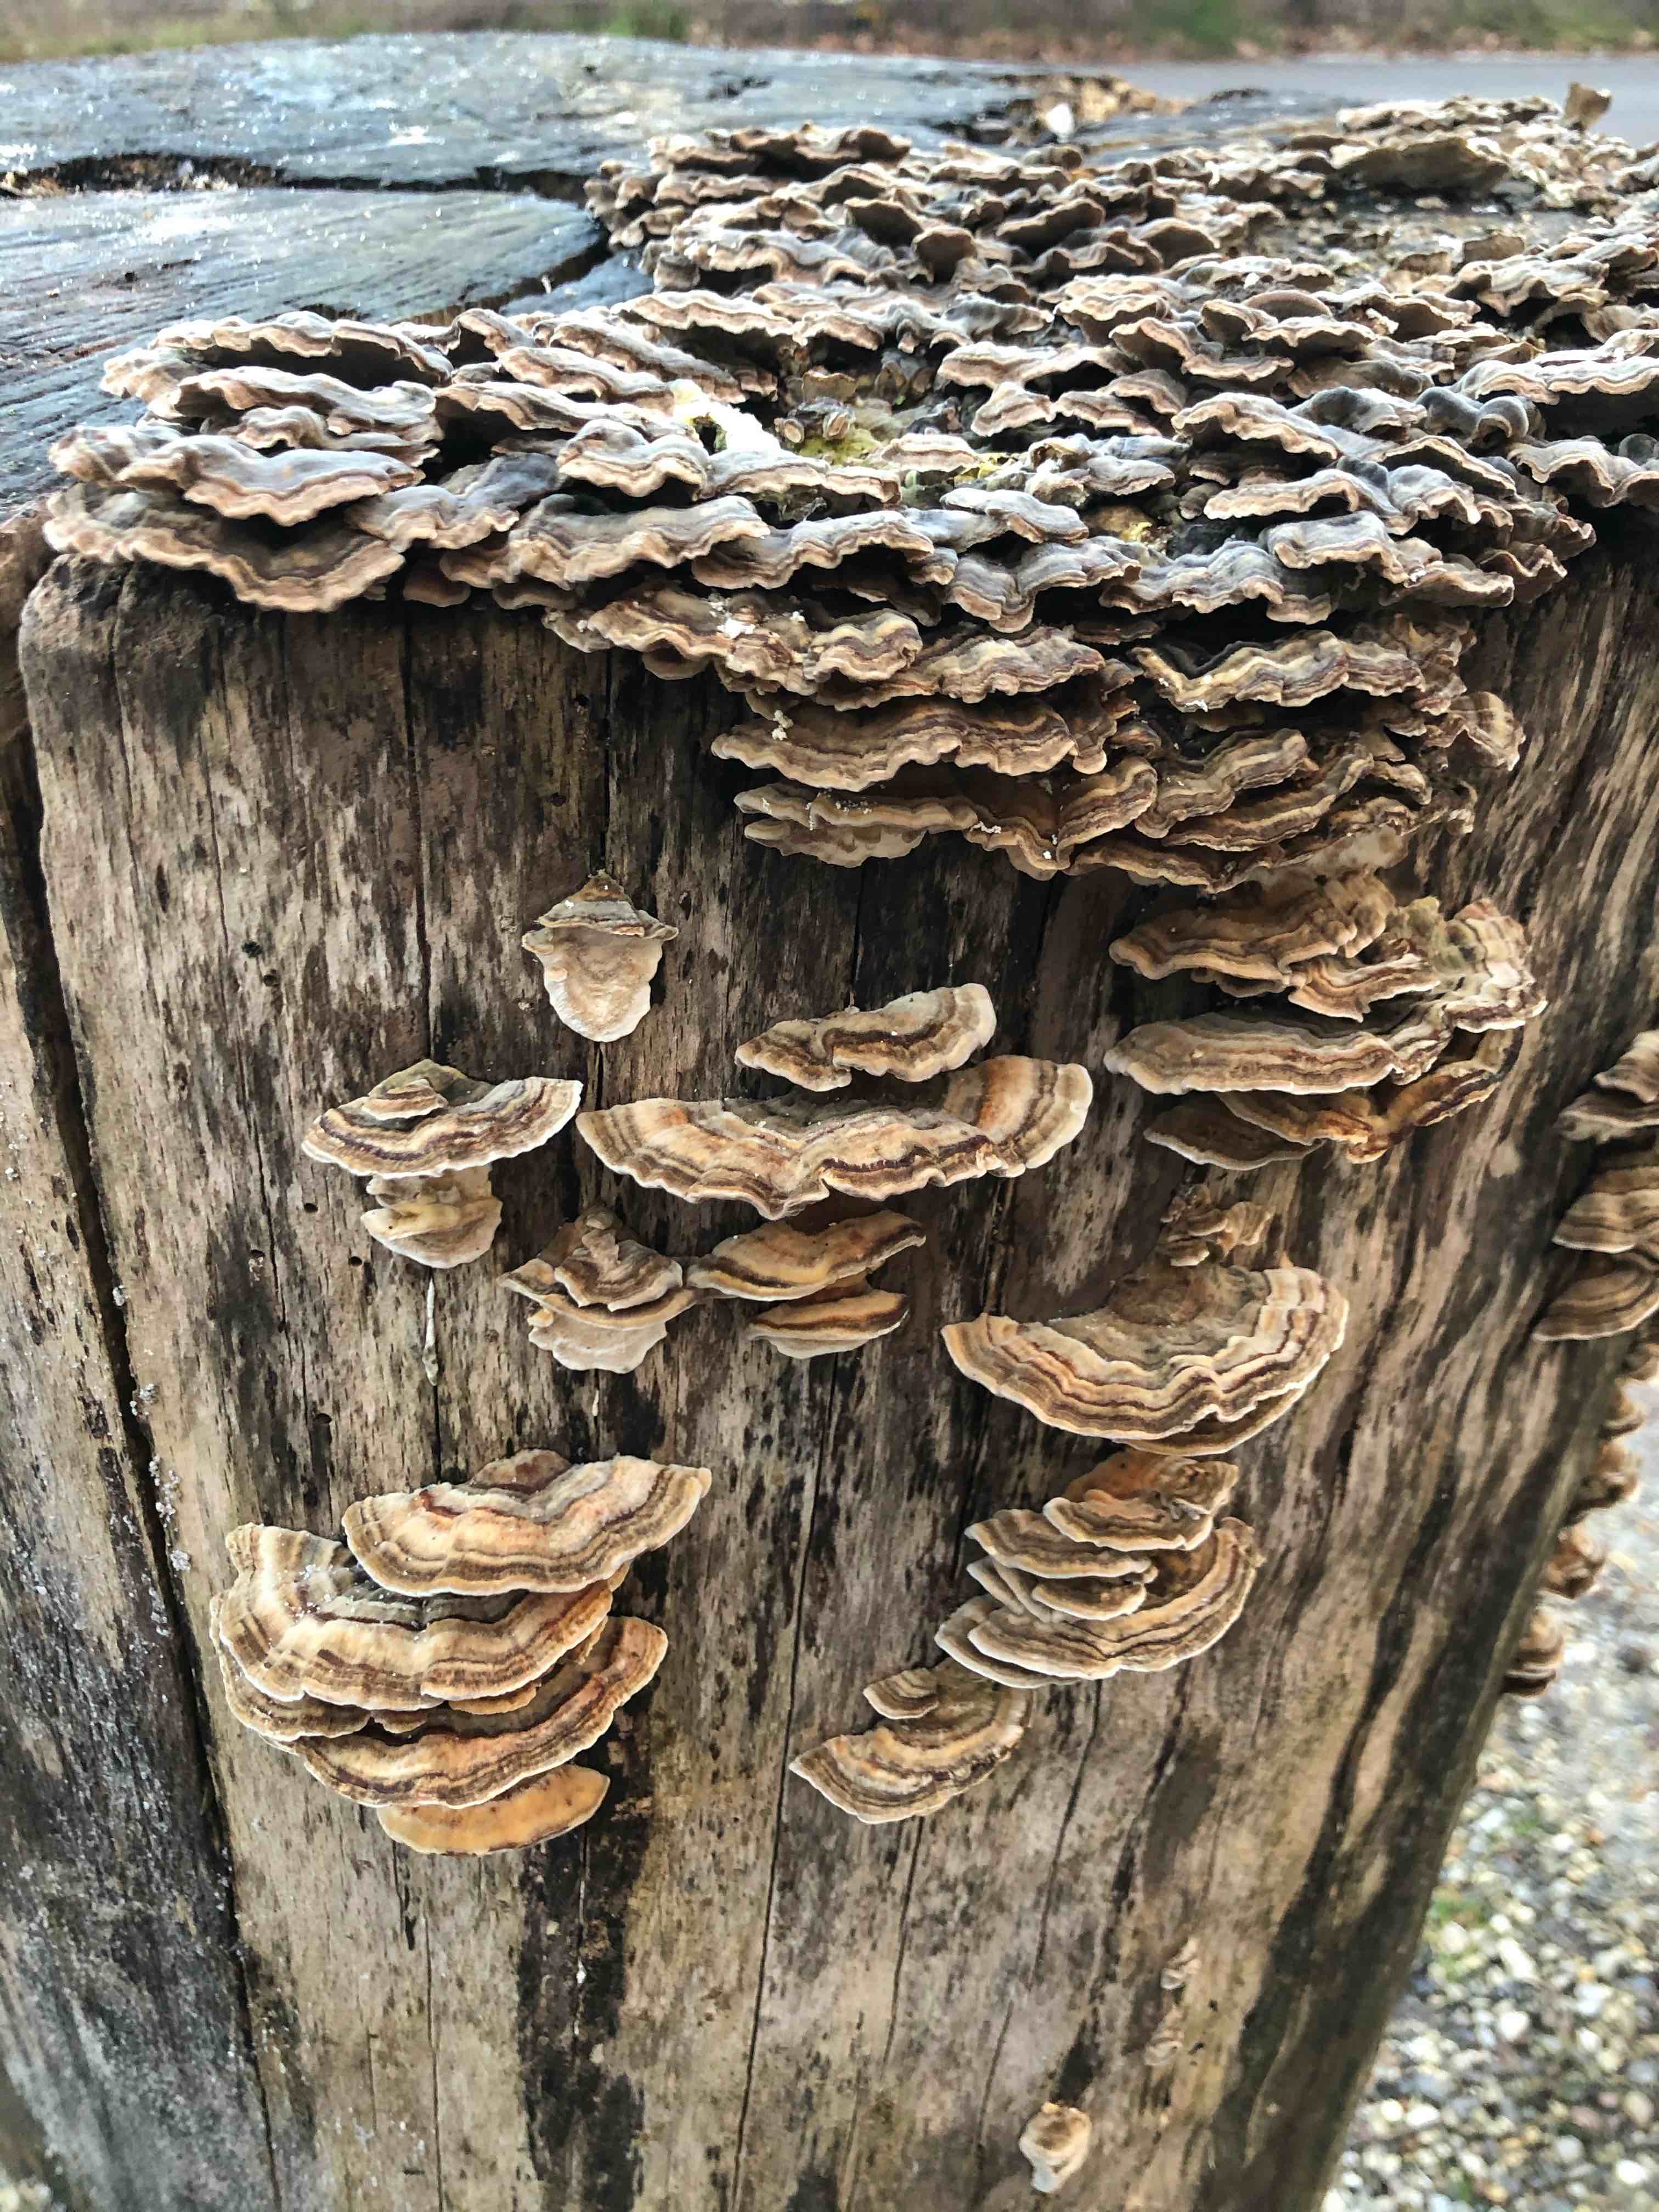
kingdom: Fungi
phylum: Basidiomycota
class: Agaricomycetes
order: Polyporales
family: Polyporaceae
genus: Trametes
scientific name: Trametes versicolor
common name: broget læderporesvamp
